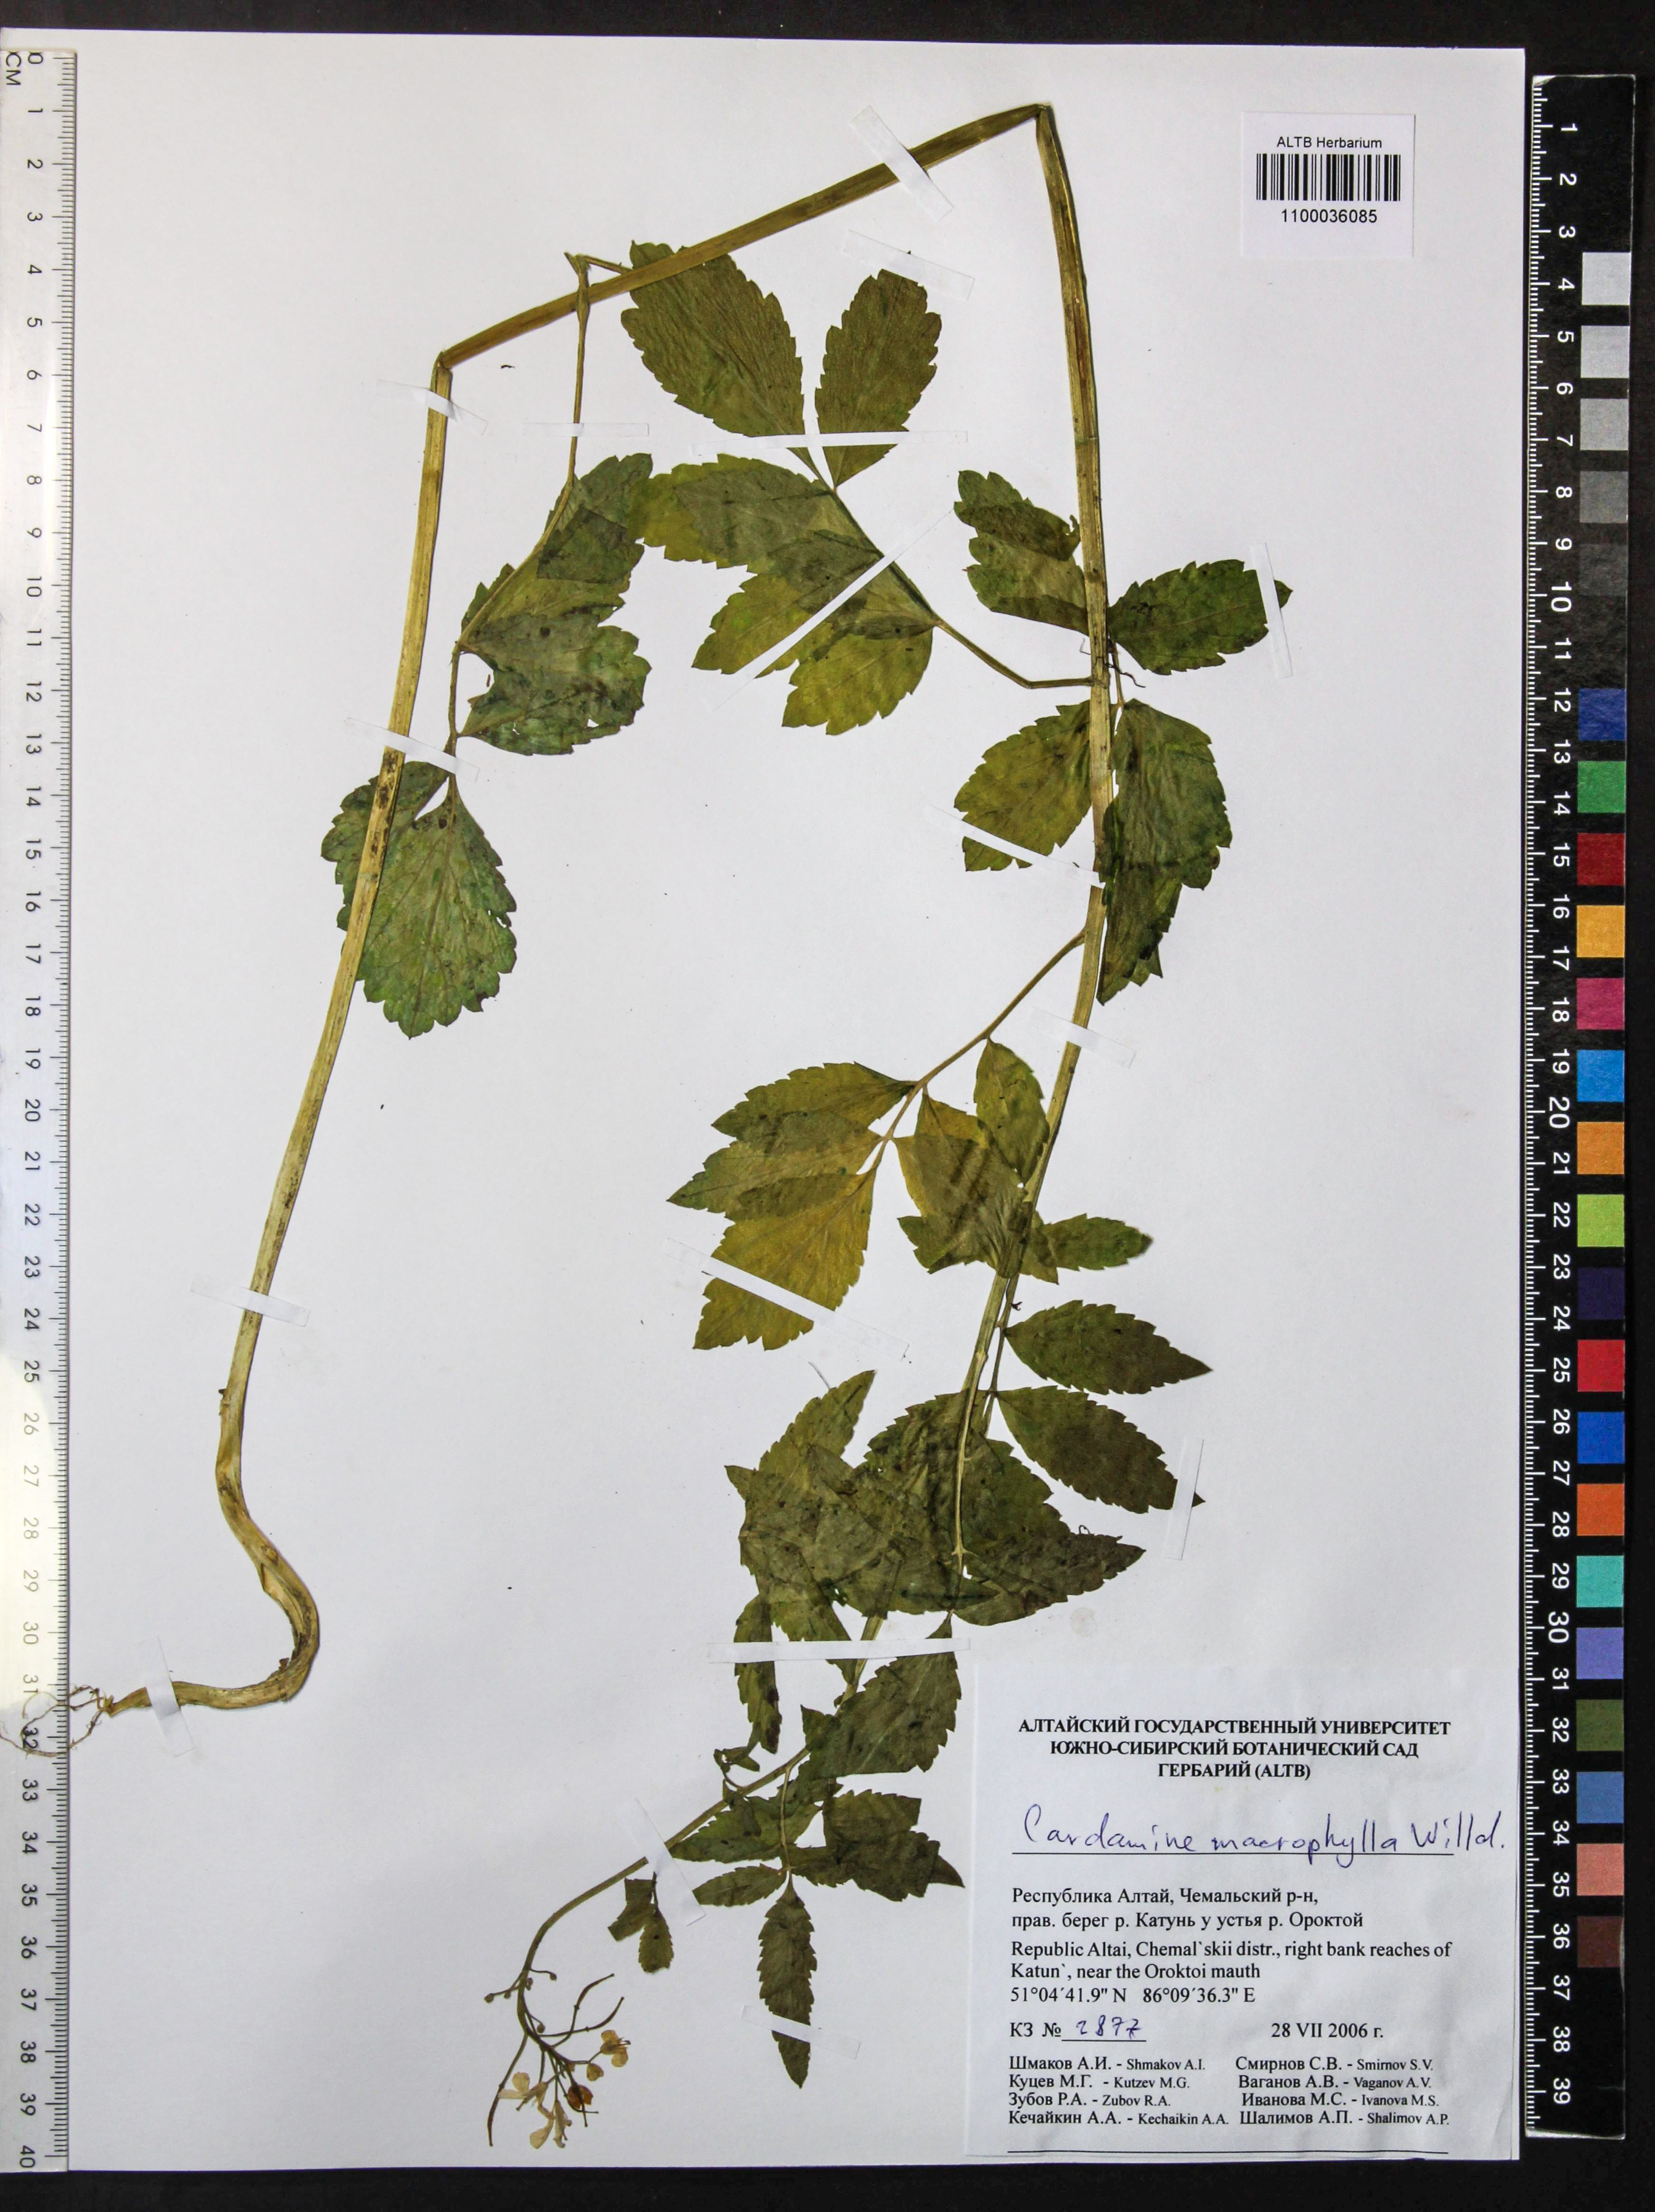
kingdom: Plantae
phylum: Tracheophyta
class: Magnoliopsida
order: Brassicales
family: Brassicaceae
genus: Cardamine
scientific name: Cardamine macrophylla
